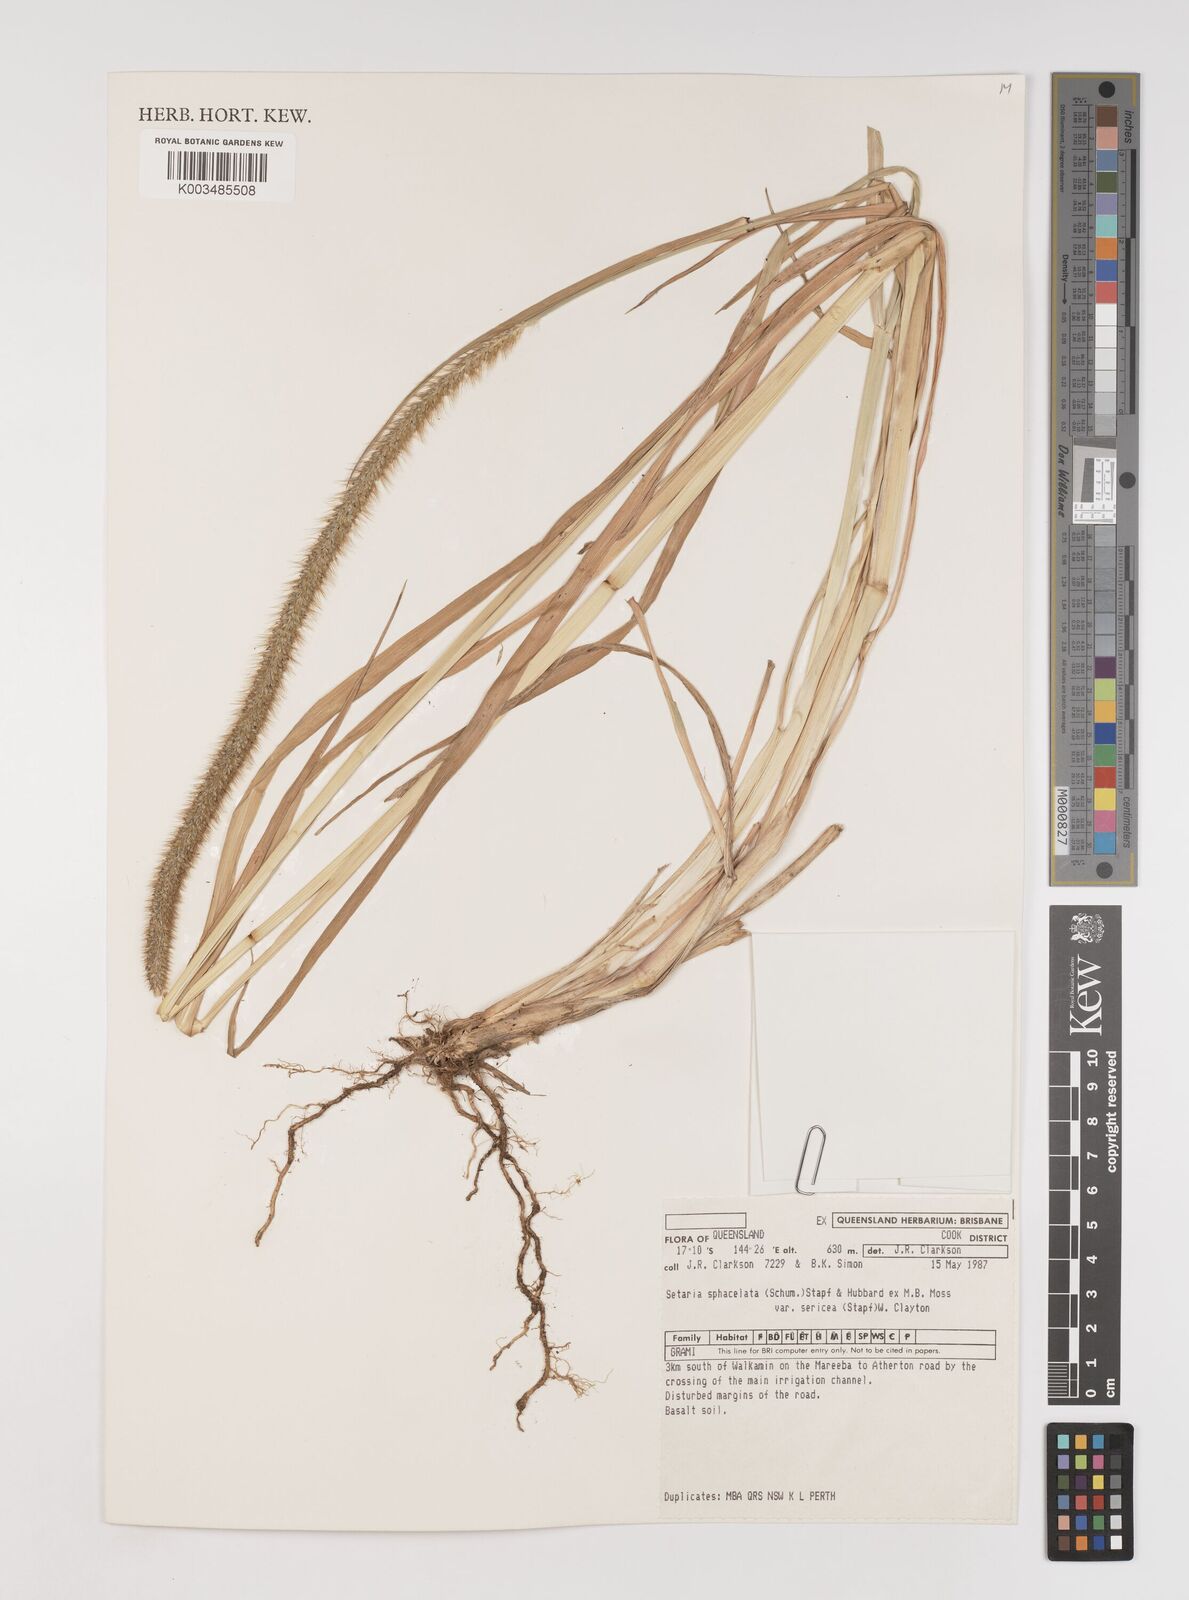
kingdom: Plantae
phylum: Tracheophyta
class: Liliopsida
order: Poales
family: Poaceae
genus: Setaria
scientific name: Setaria sphacelata
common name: African bristlegrass
